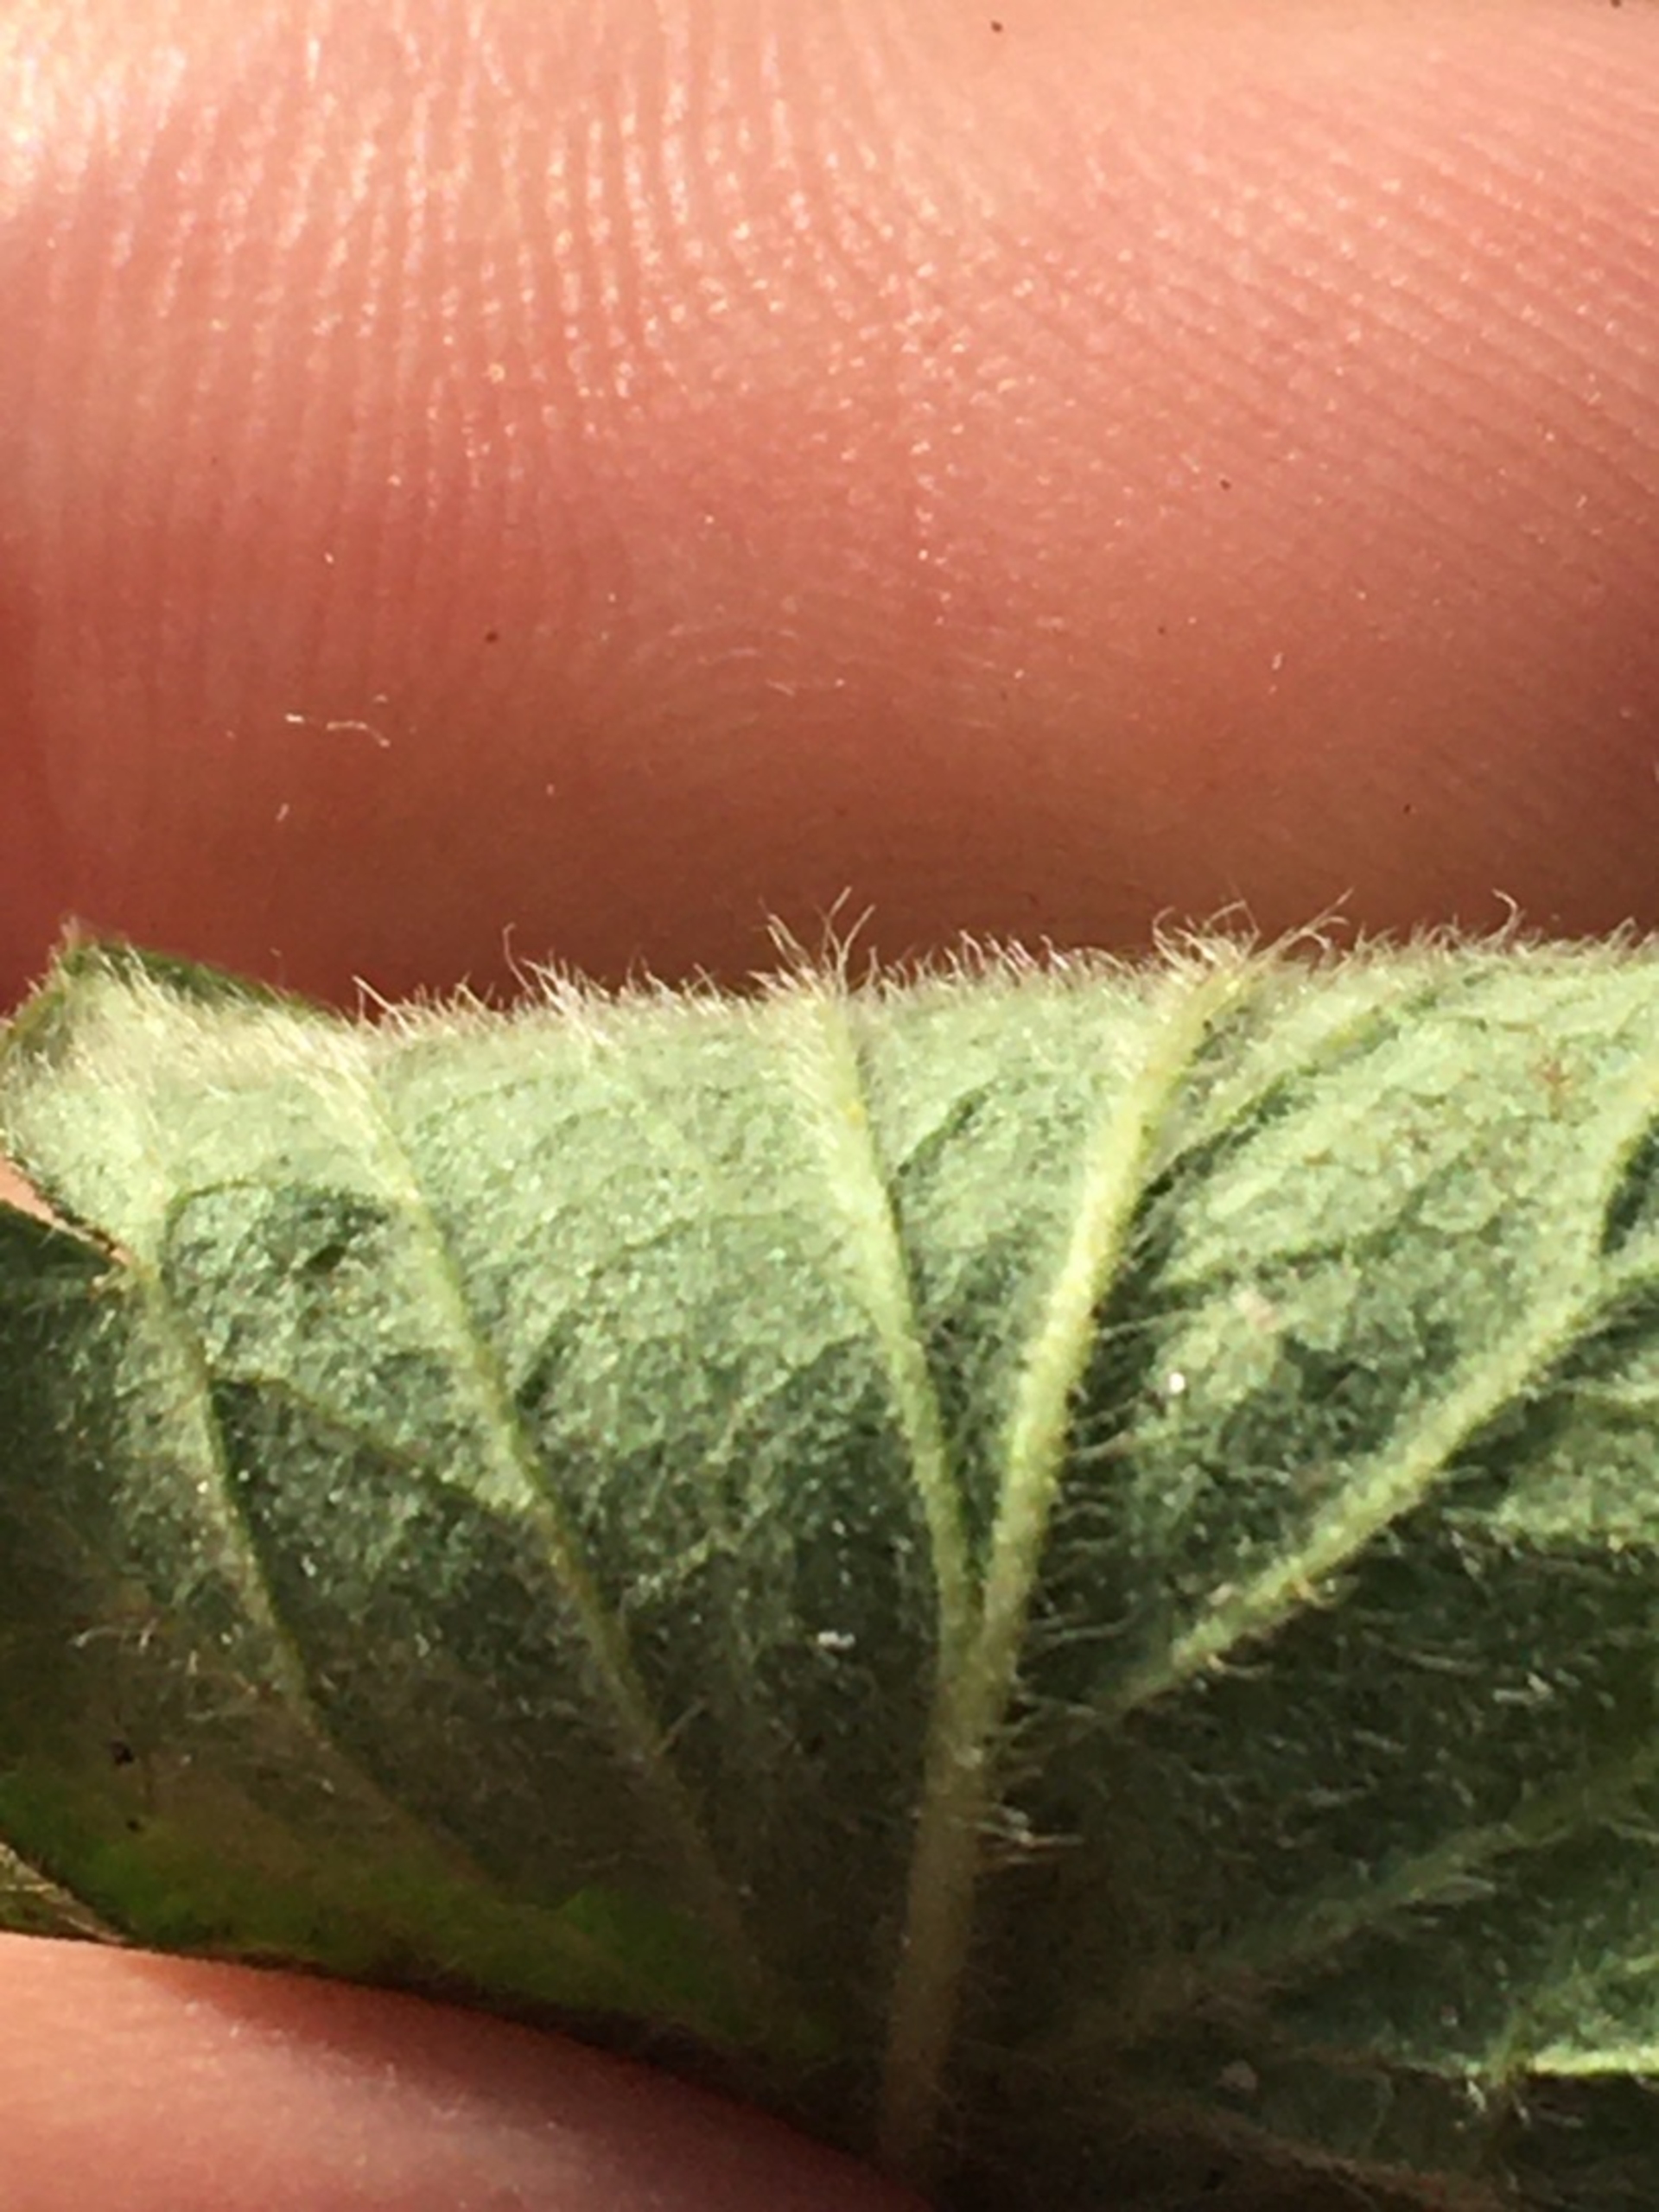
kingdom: Plantae
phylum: Tracheophyta
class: Magnoliopsida
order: Rosales
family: Rosaceae
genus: Agrimonia
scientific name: Agrimonia eupatoria
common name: Almindelig agermåne
